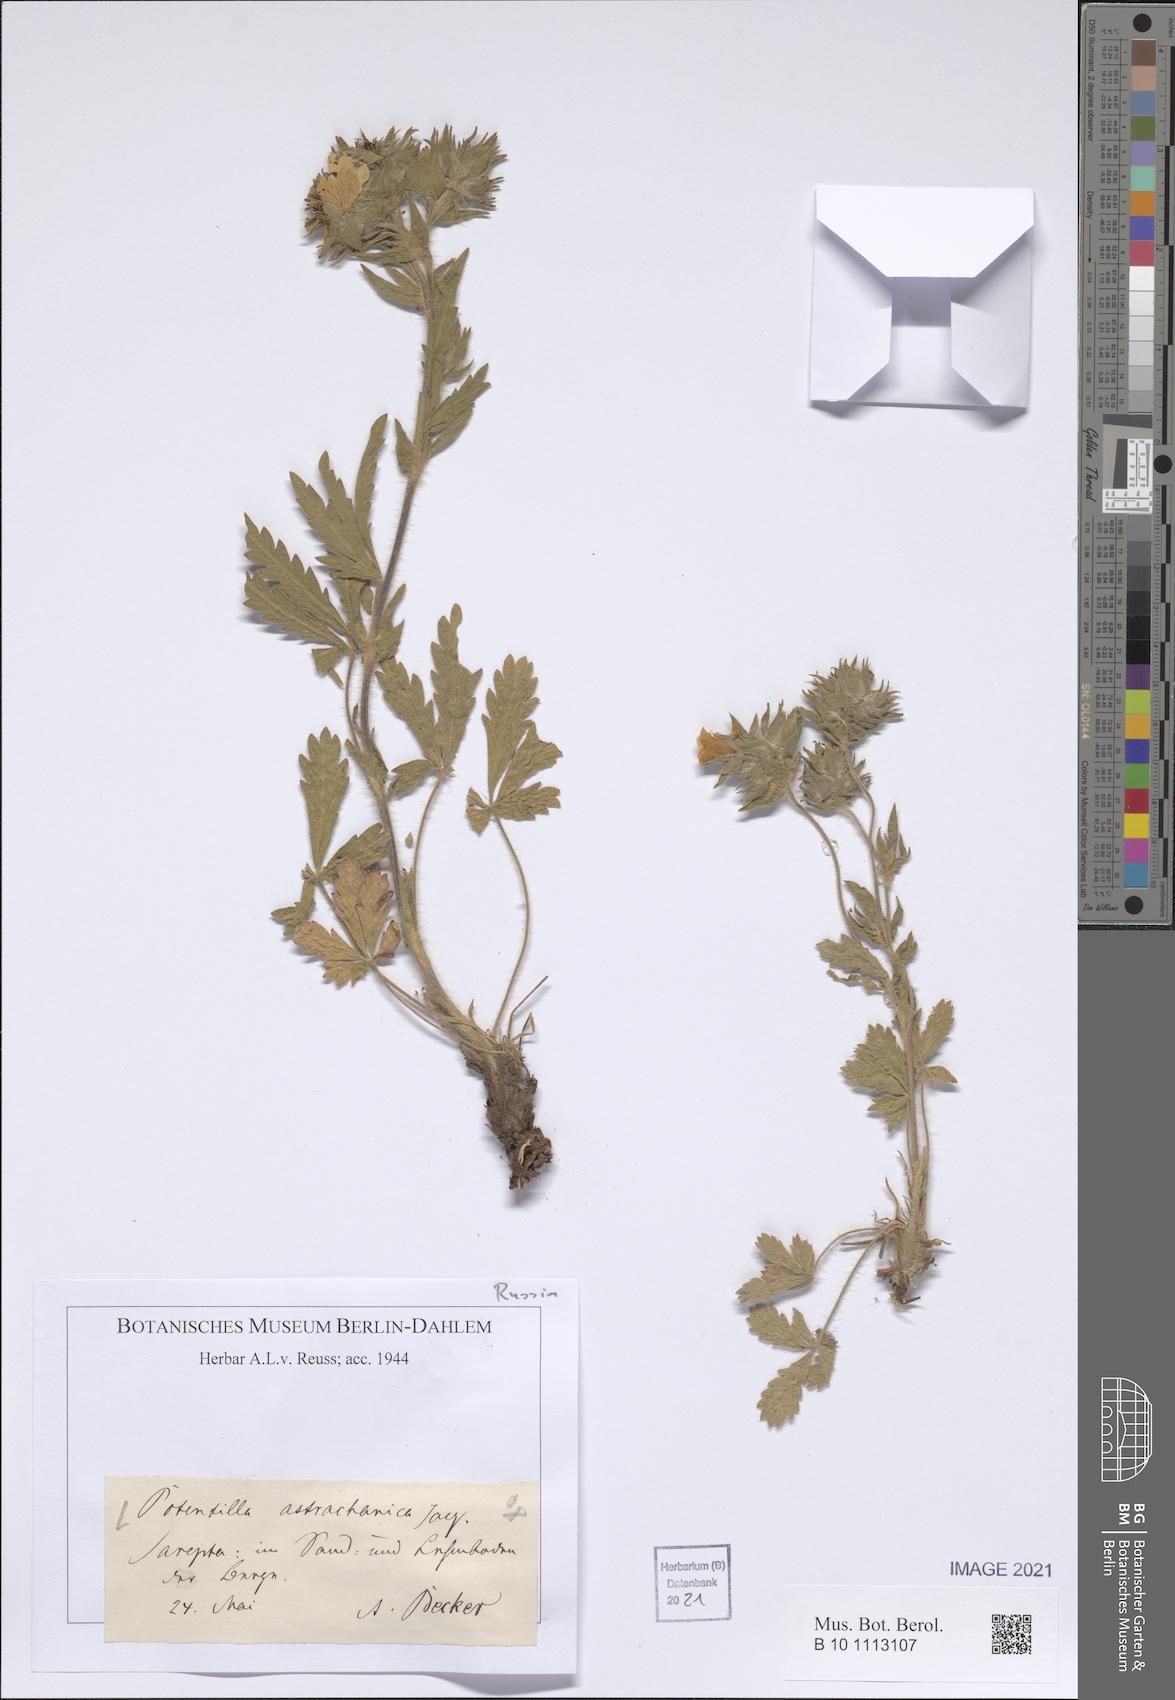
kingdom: Plantae
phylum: Tracheophyta
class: Magnoliopsida
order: Rosales
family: Rosaceae
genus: Potentilla
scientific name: Potentilla astracanica
